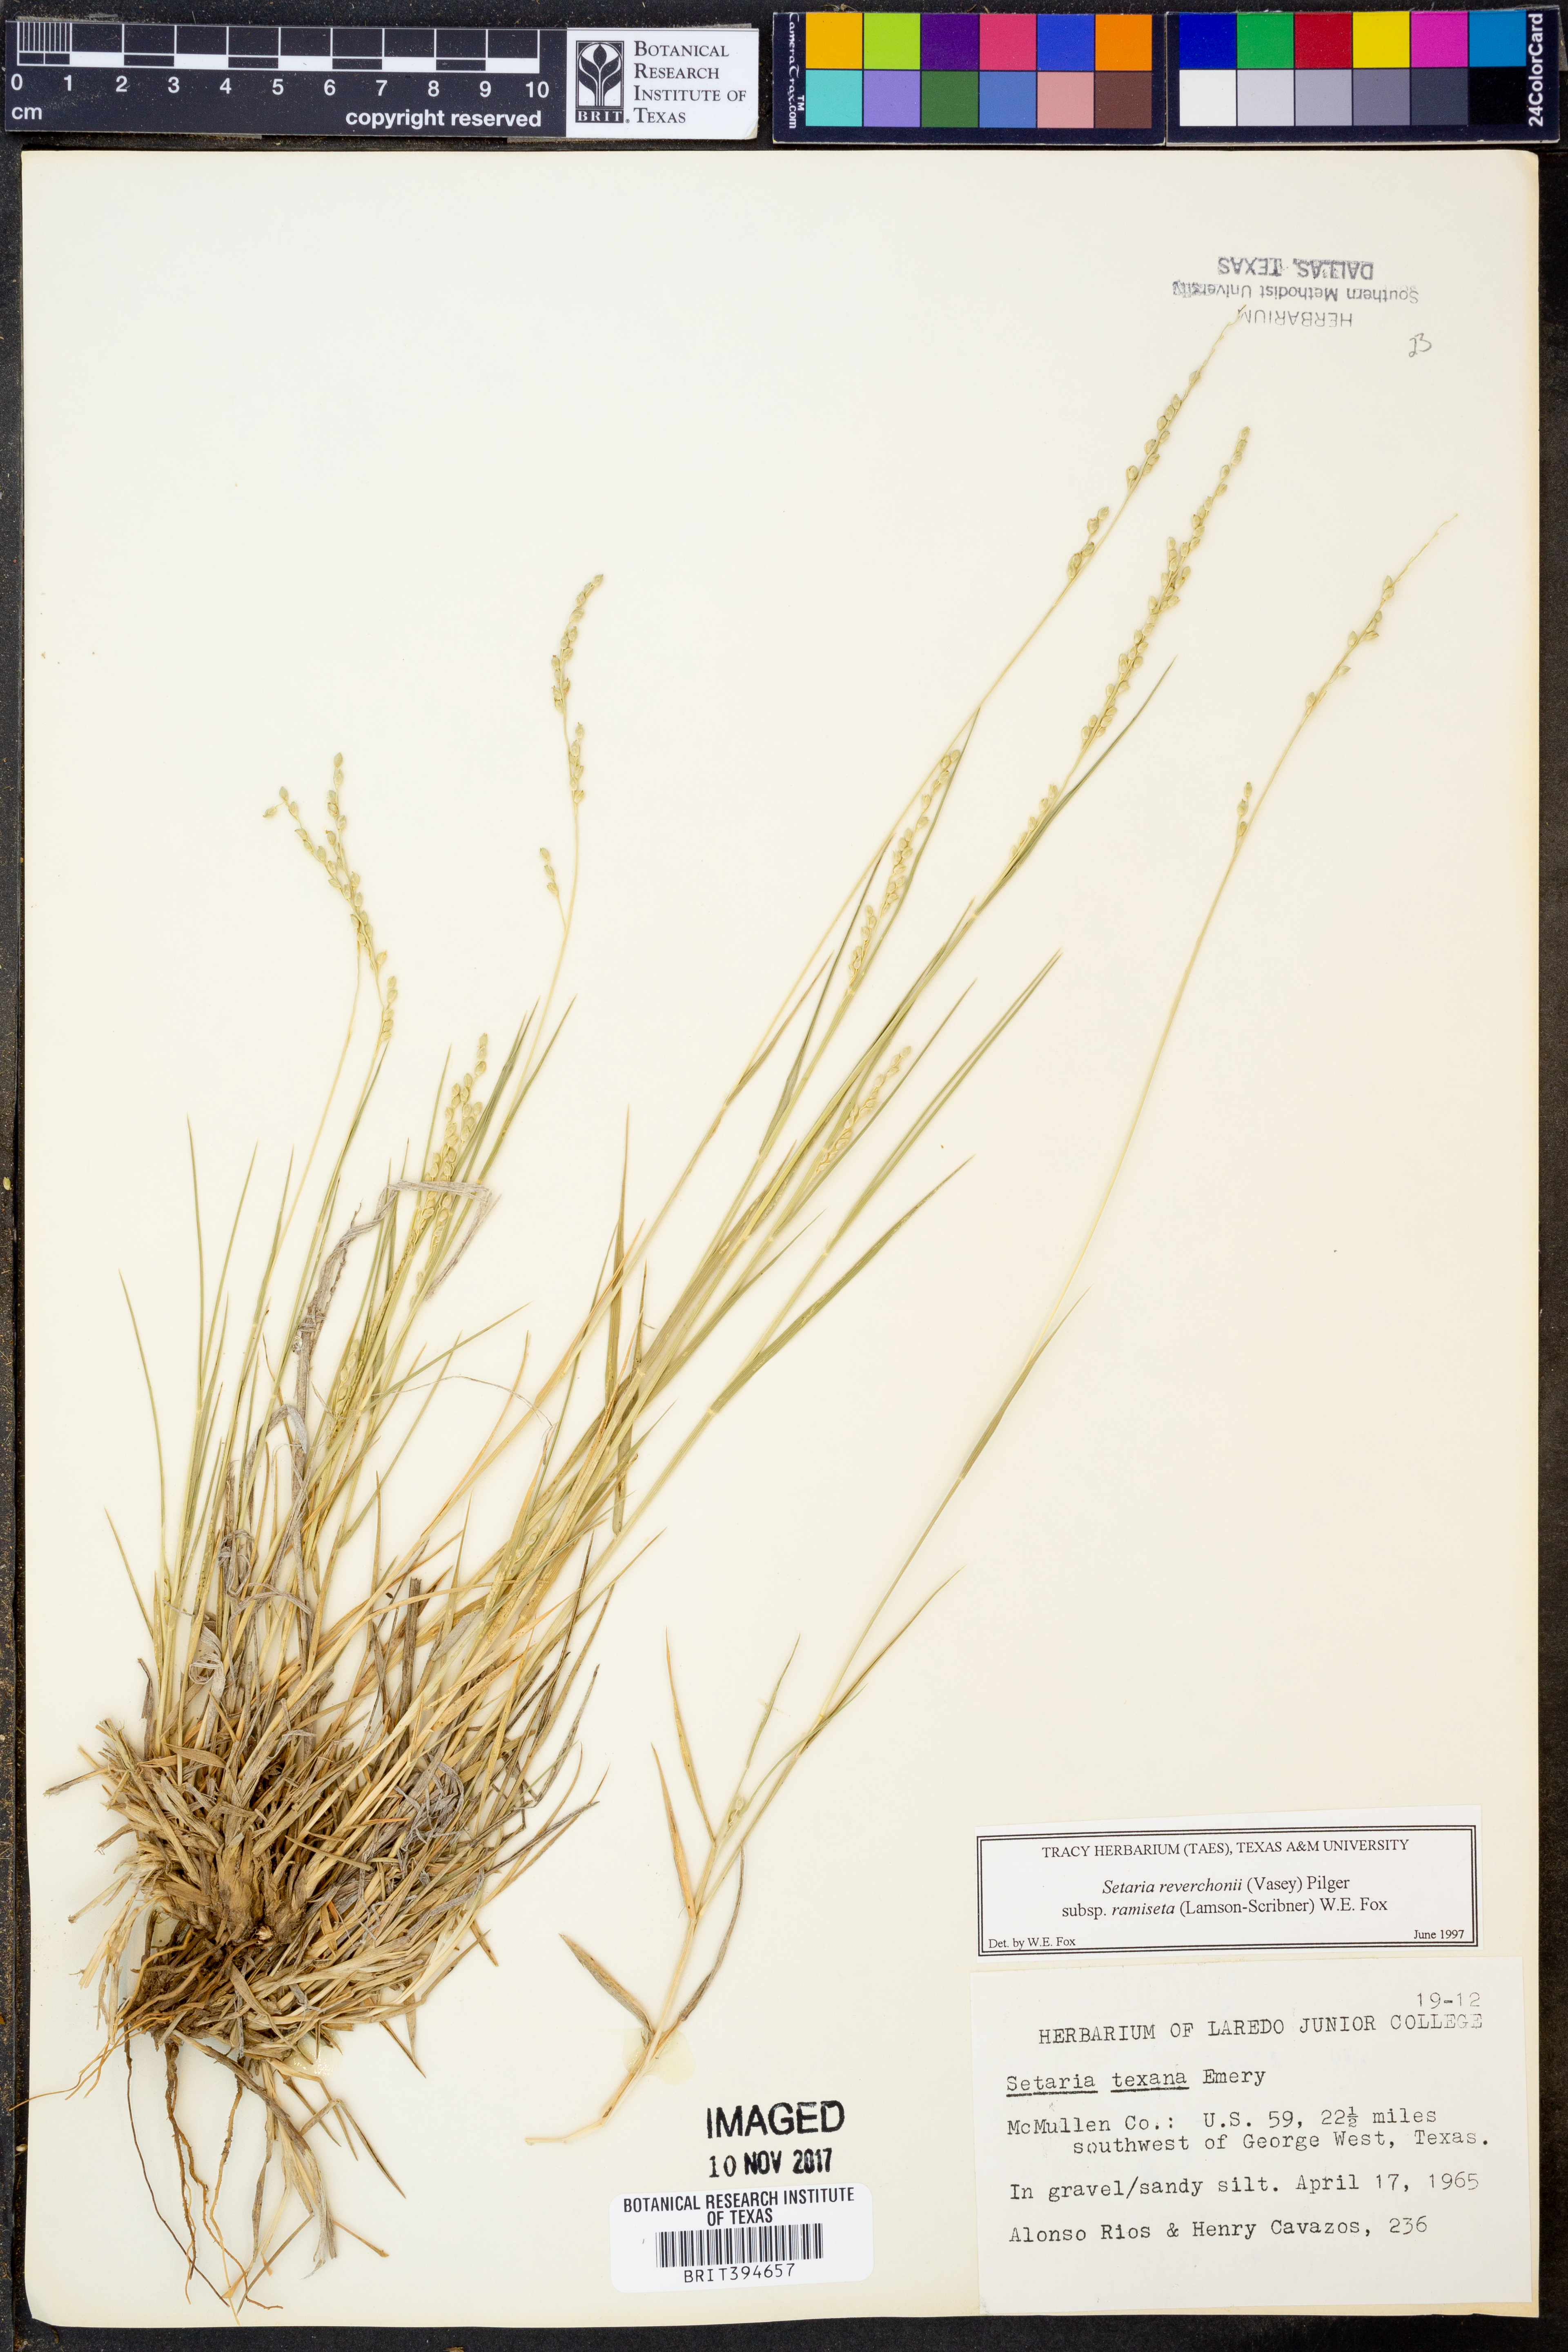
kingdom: Plantae
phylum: Tracheophyta
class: Liliopsida
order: Poales
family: Poaceae
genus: Setaria
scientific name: Setaria reverchonii
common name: Reverchon's bristle grass
